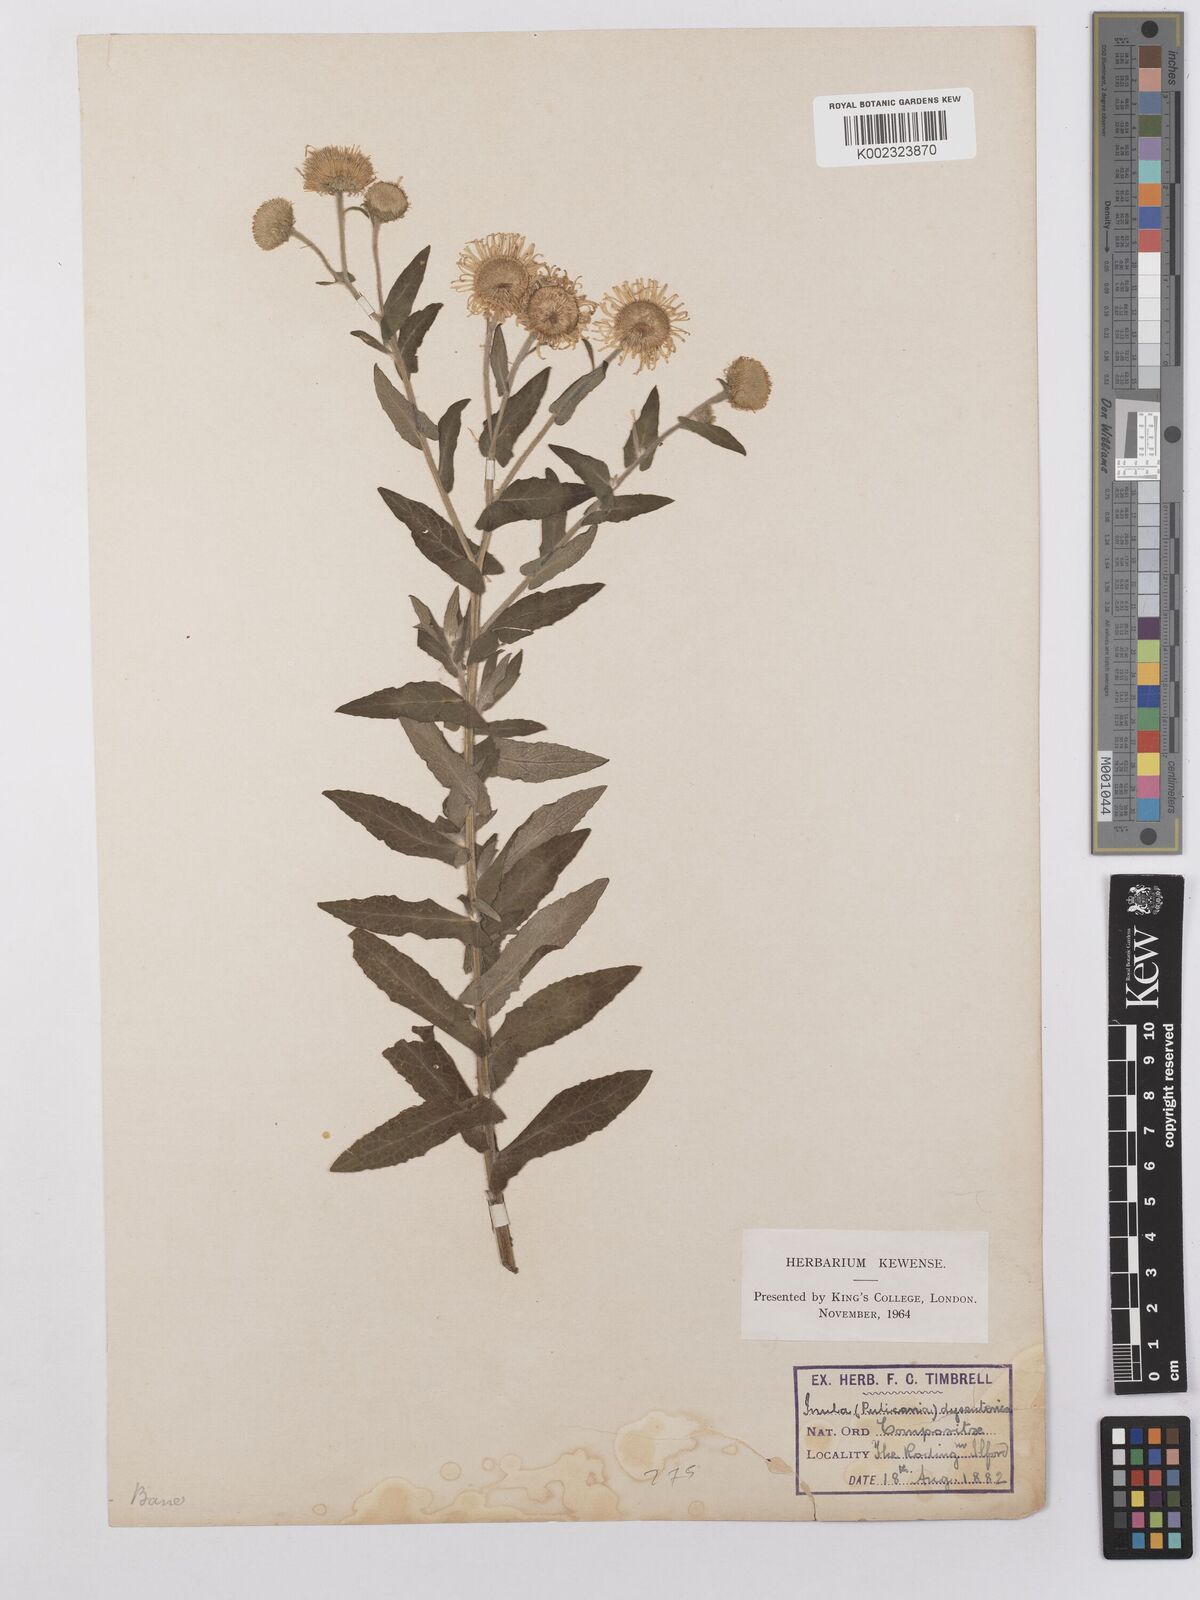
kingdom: Plantae
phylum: Tracheophyta
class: Magnoliopsida
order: Asterales
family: Asteraceae
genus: Pulicaria
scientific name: Pulicaria dysenterica
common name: Common fleabane
